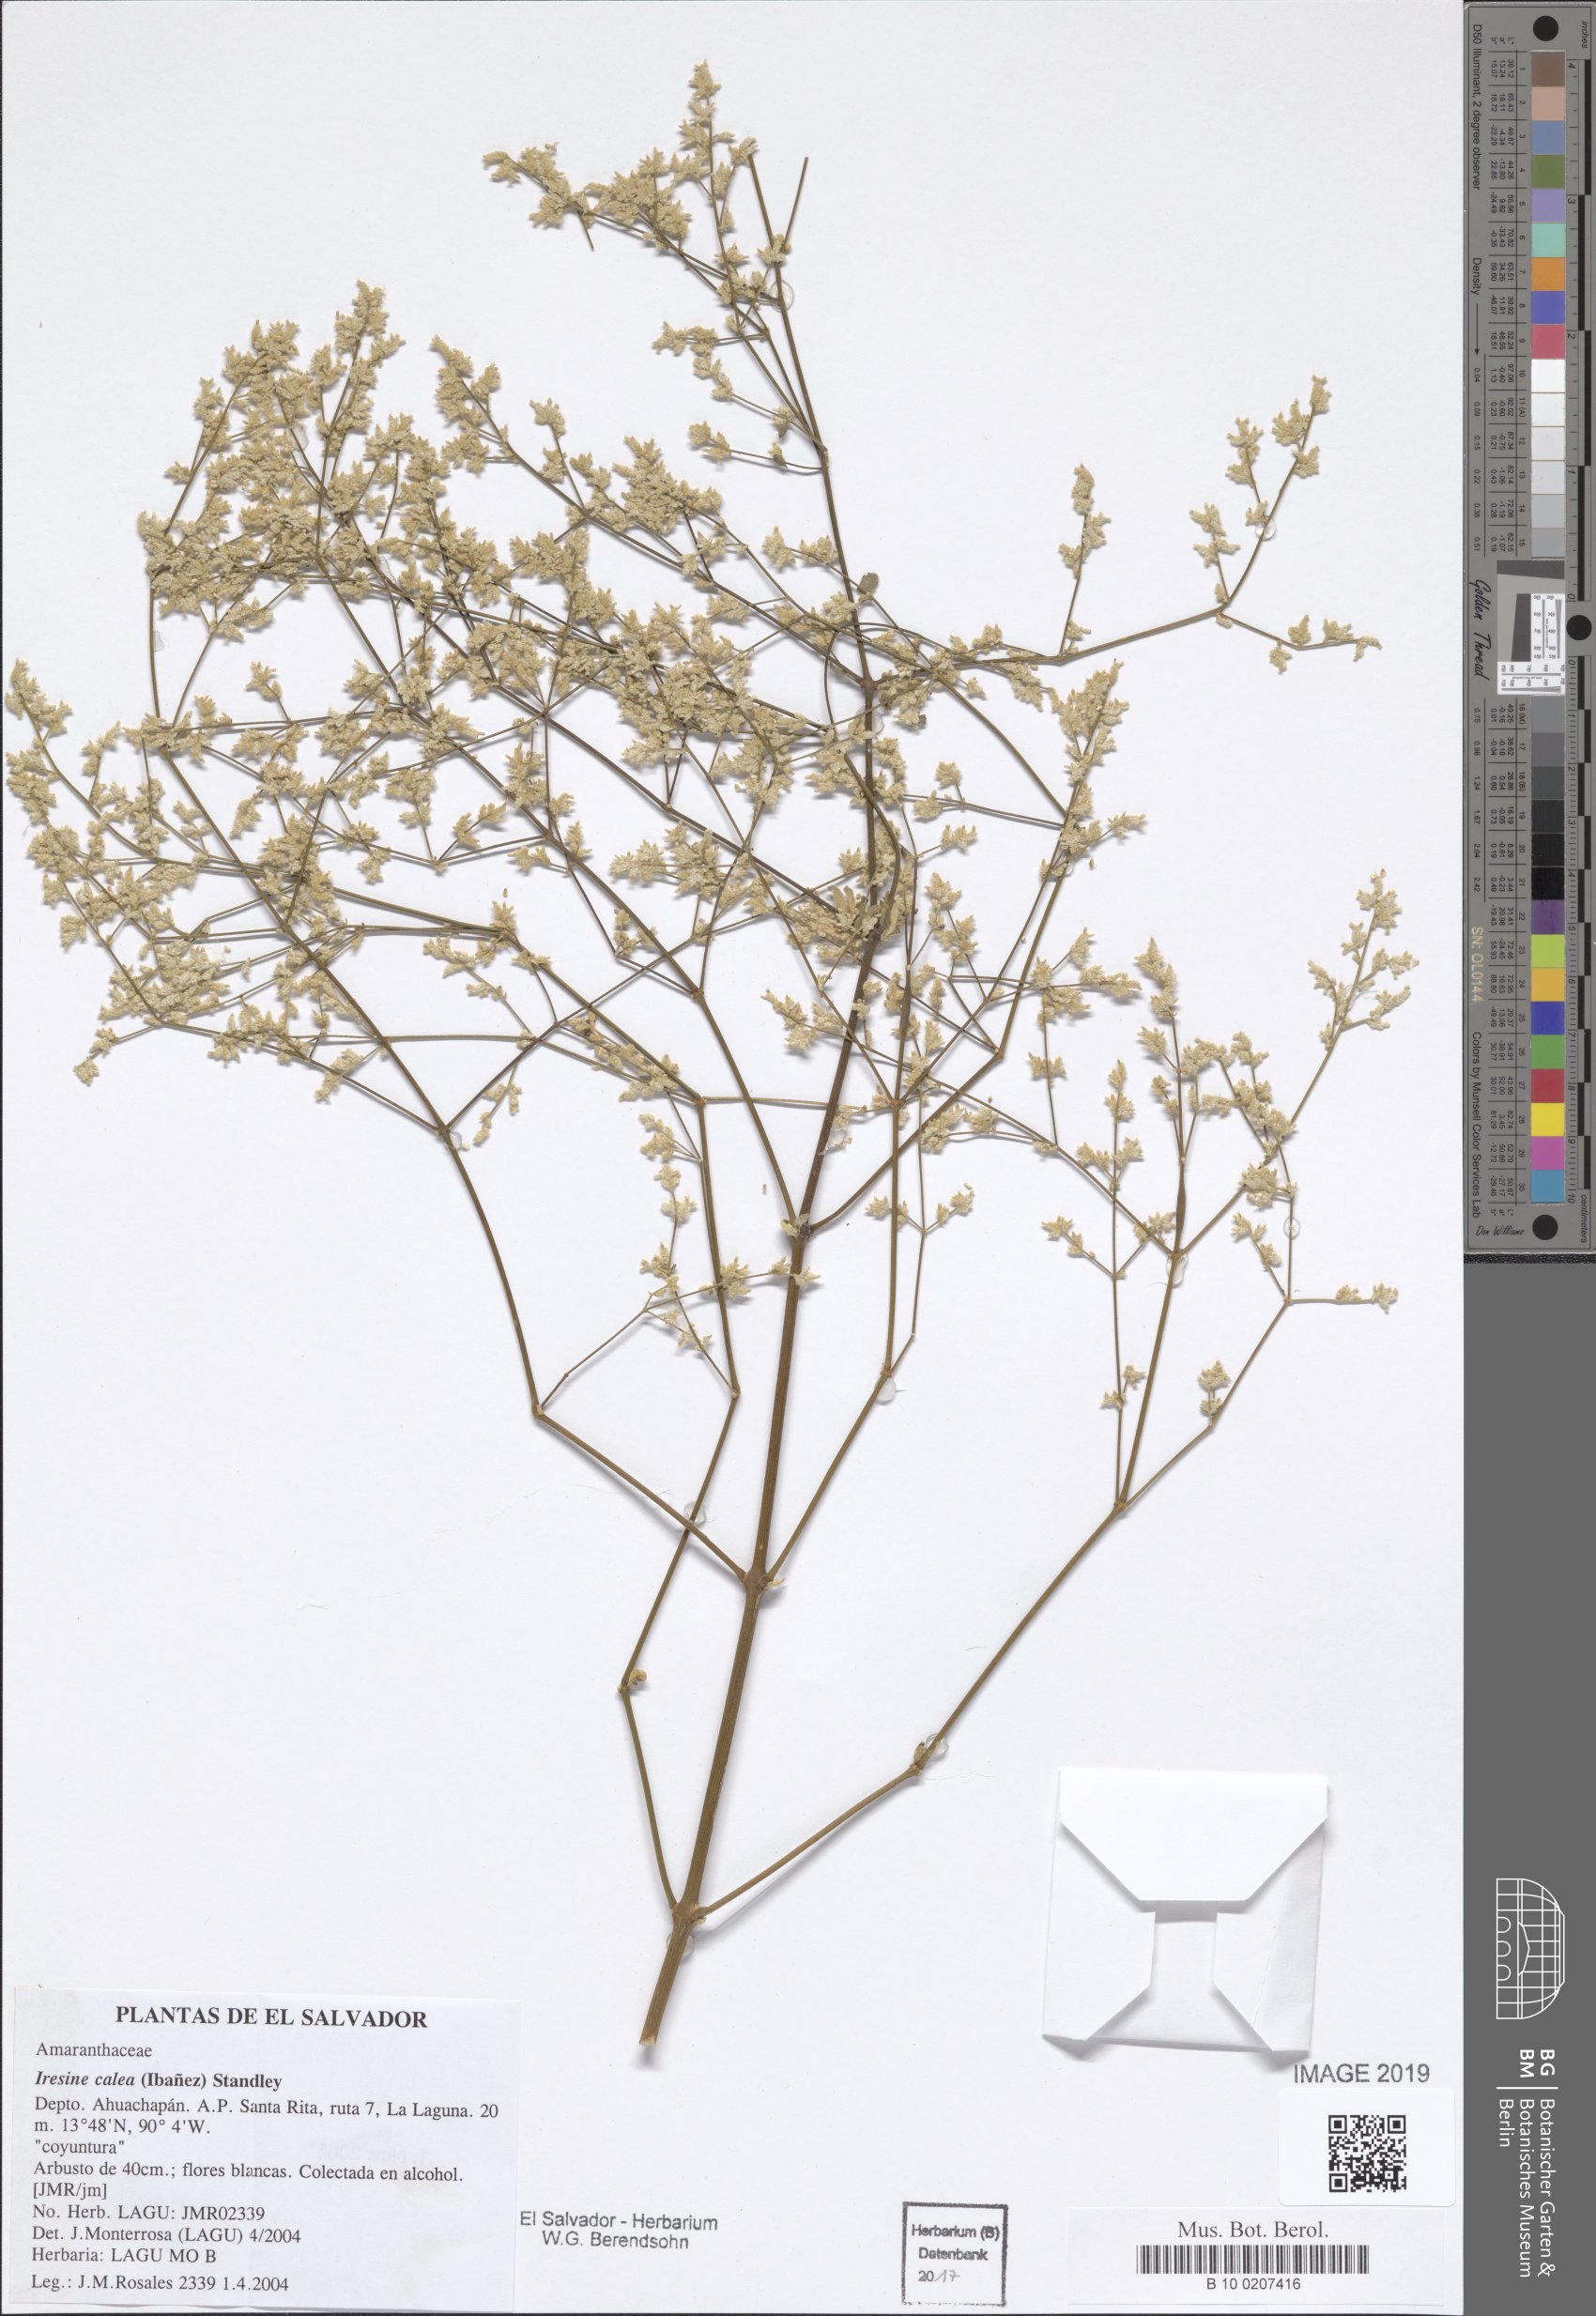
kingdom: Plantae
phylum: Tracheophyta
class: Magnoliopsida
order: Caryophyllales
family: Amaranthaceae
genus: Iresine
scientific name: Iresine latifolia
